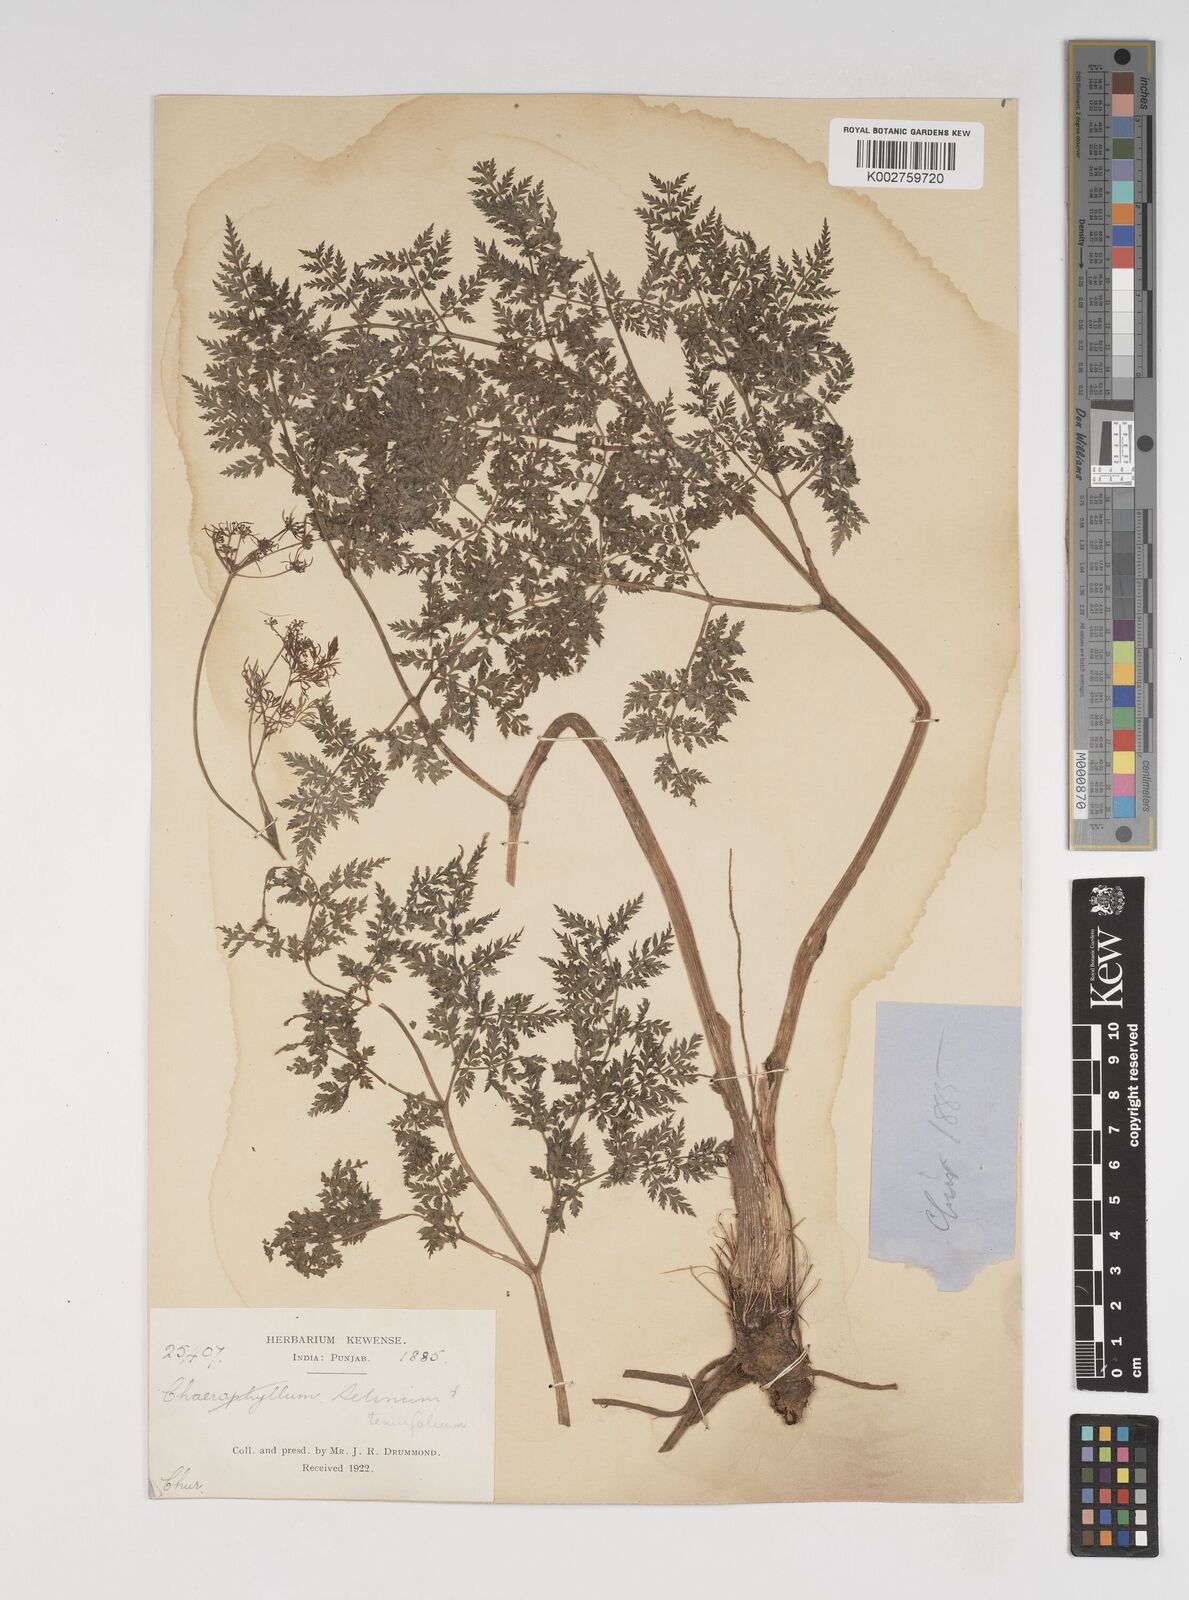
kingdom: Plantae
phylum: Tracheophyta
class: Magnoliopsida
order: Apiales
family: Apiaceae
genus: Selinum
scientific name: Selinum
